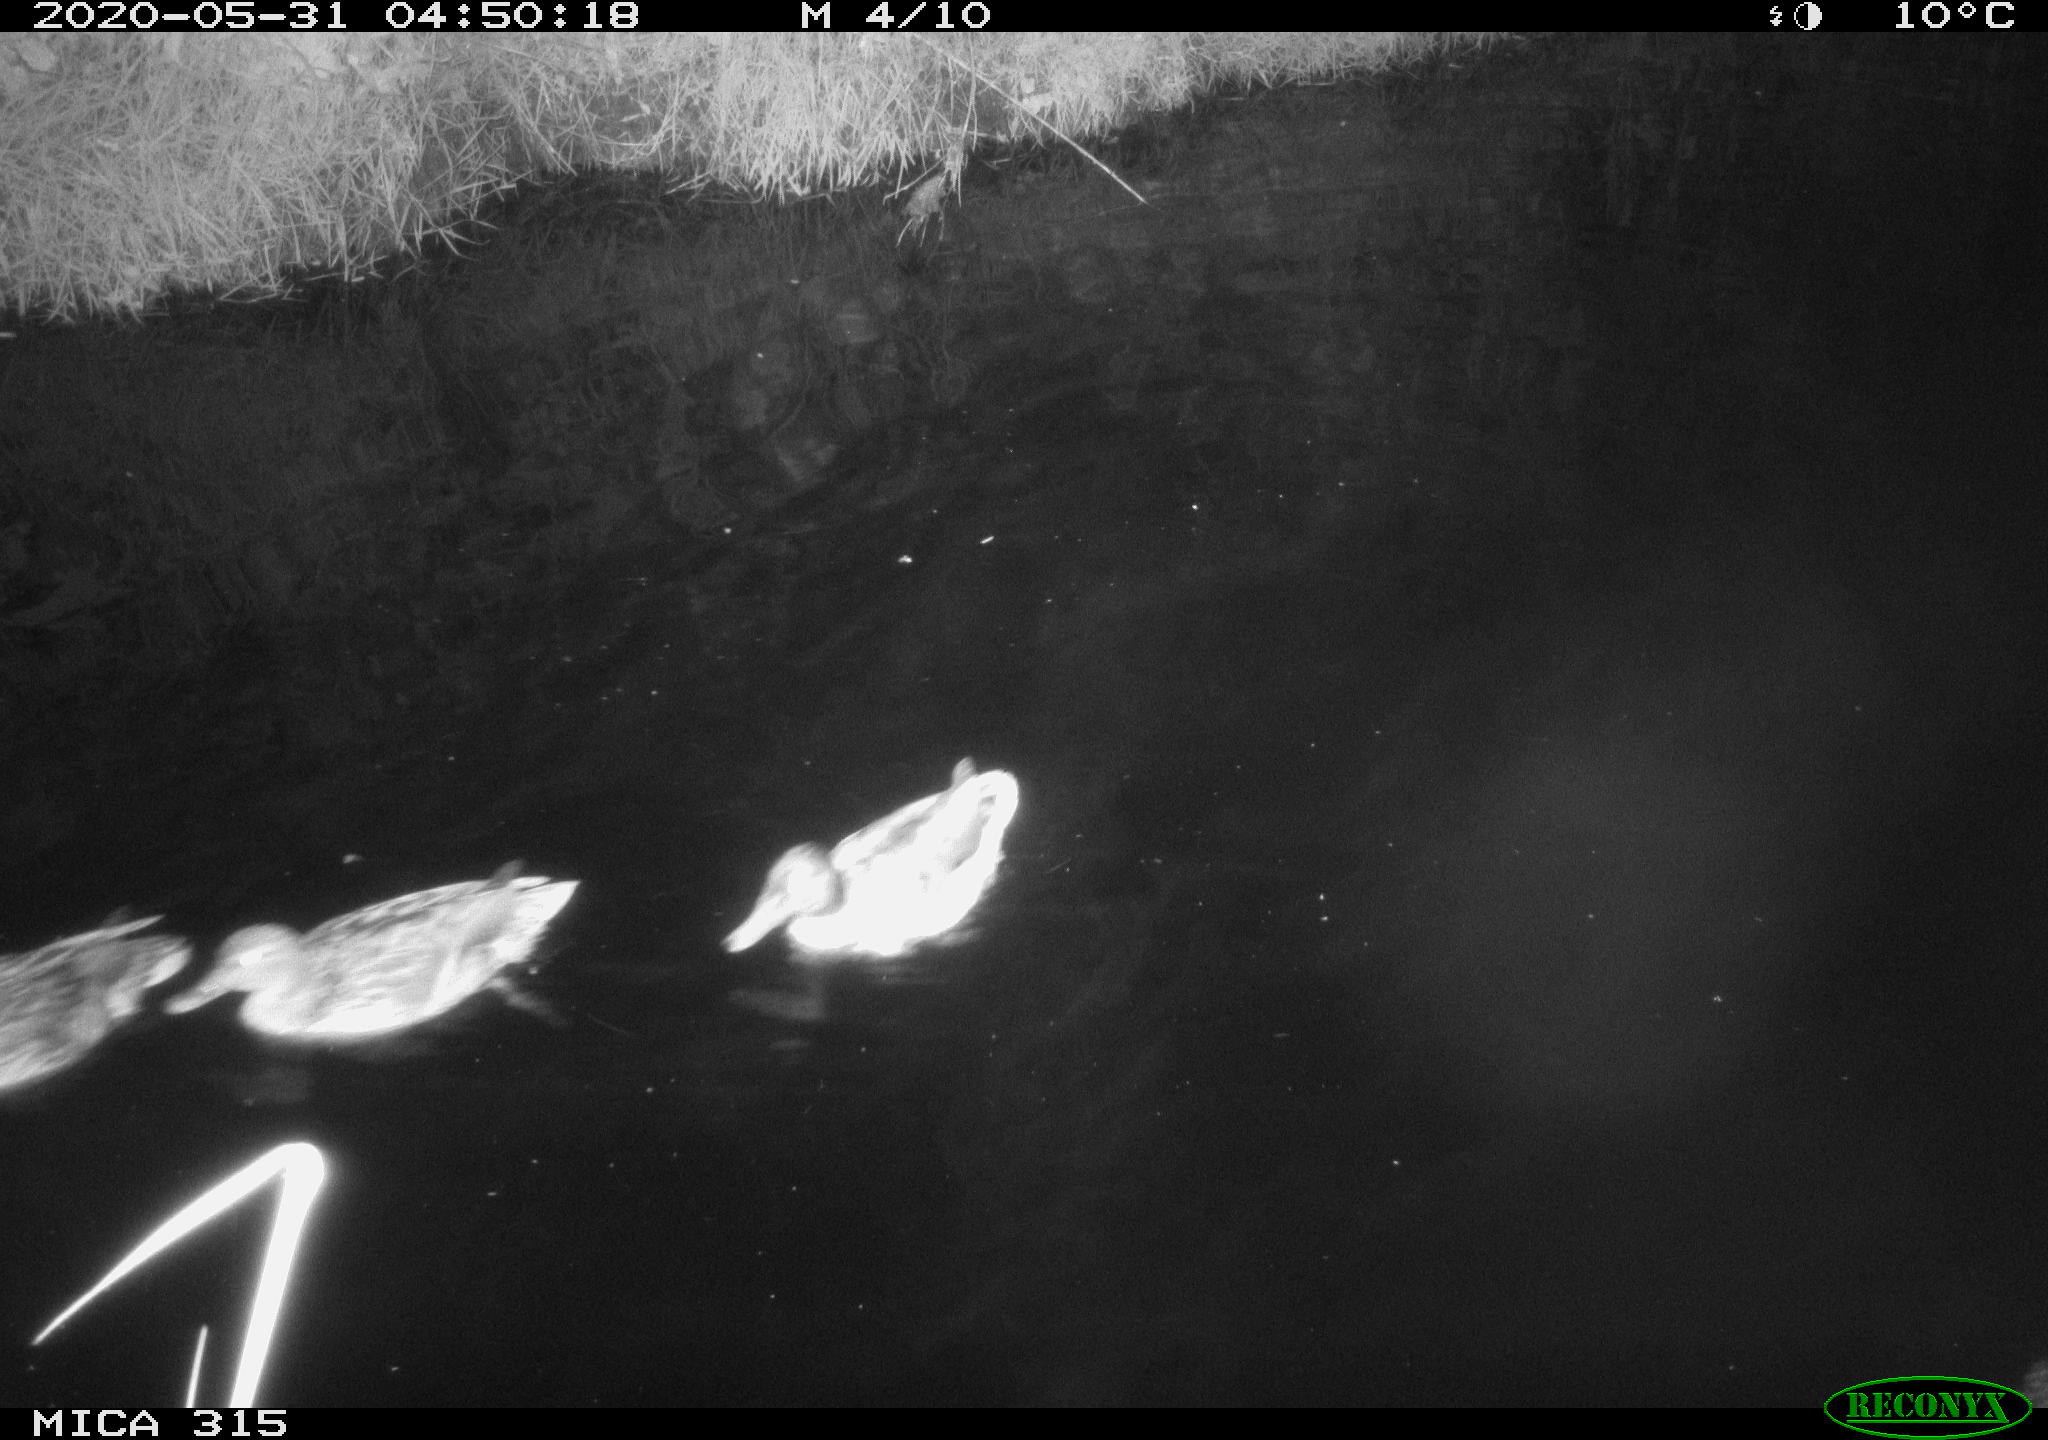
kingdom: Animalia
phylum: Chordata
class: Aves
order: Anseriformes
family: Anatidae
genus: Anas
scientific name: Anas platyrhynchos
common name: Mallard
